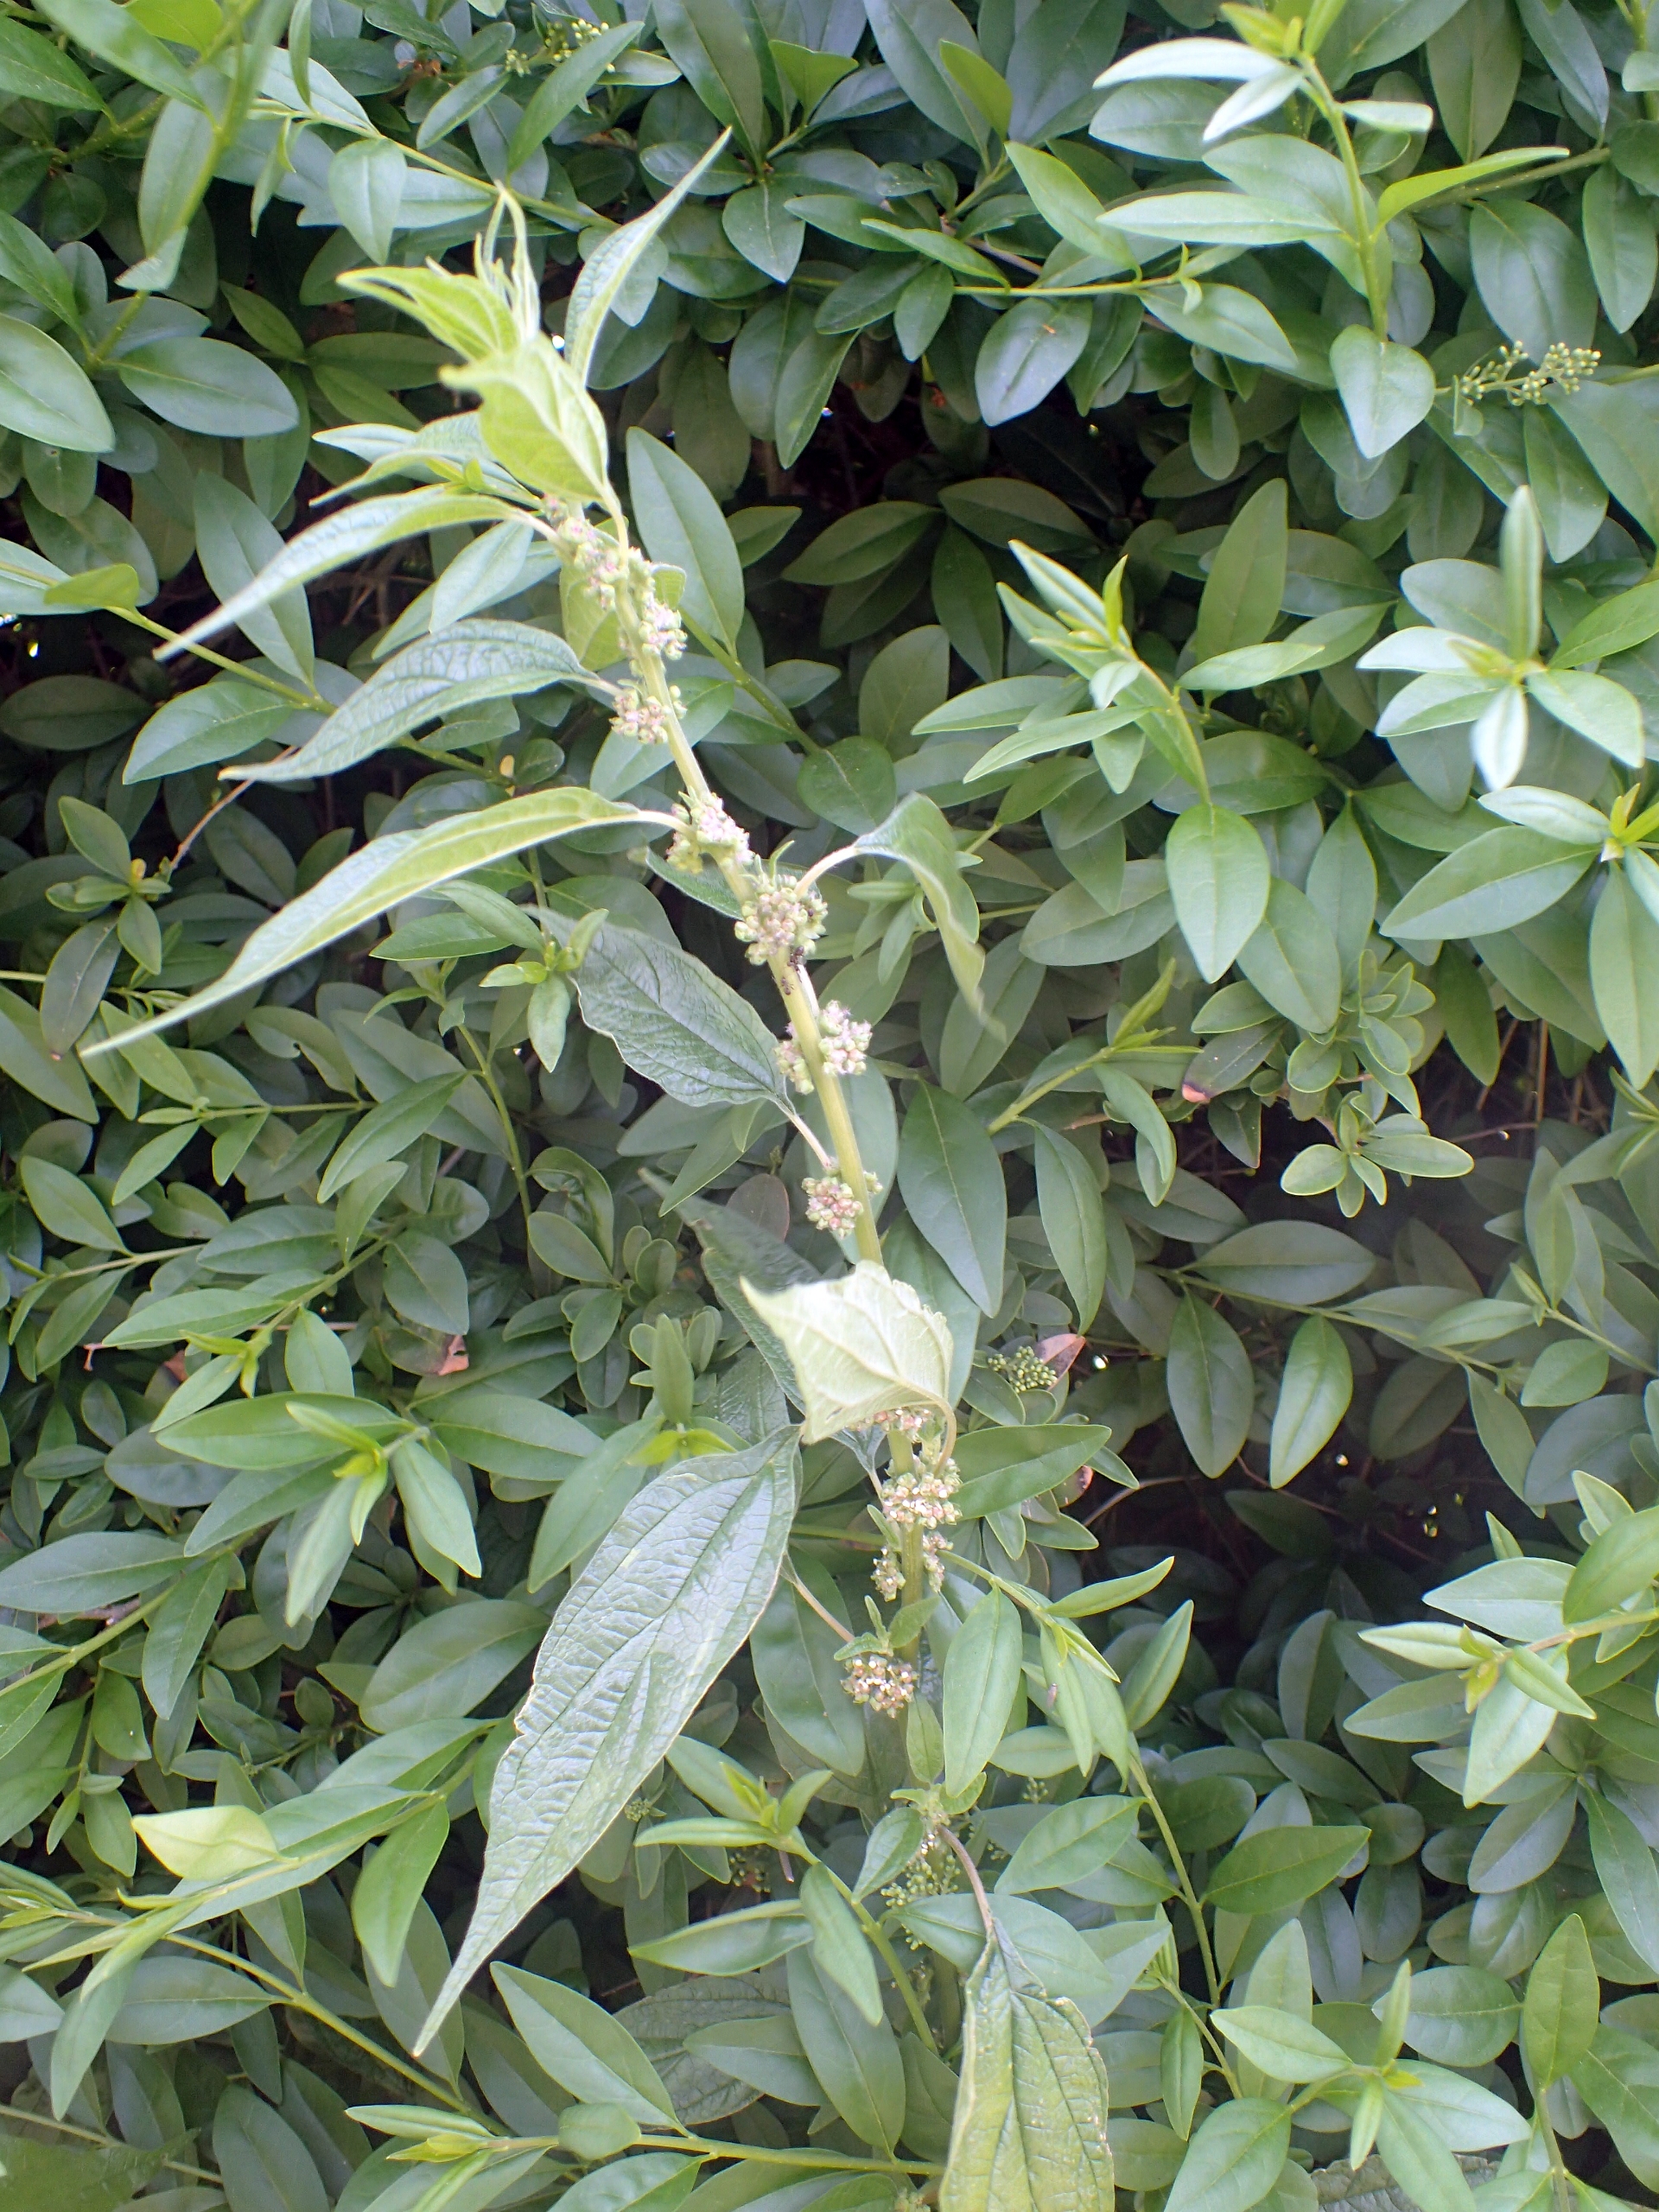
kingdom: Plantae
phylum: Tracheophyta
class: Magnoliopsida
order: Rosales
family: Urticaceae
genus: Parietaria
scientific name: Parietaria officinalis
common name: Almindelig springknap
